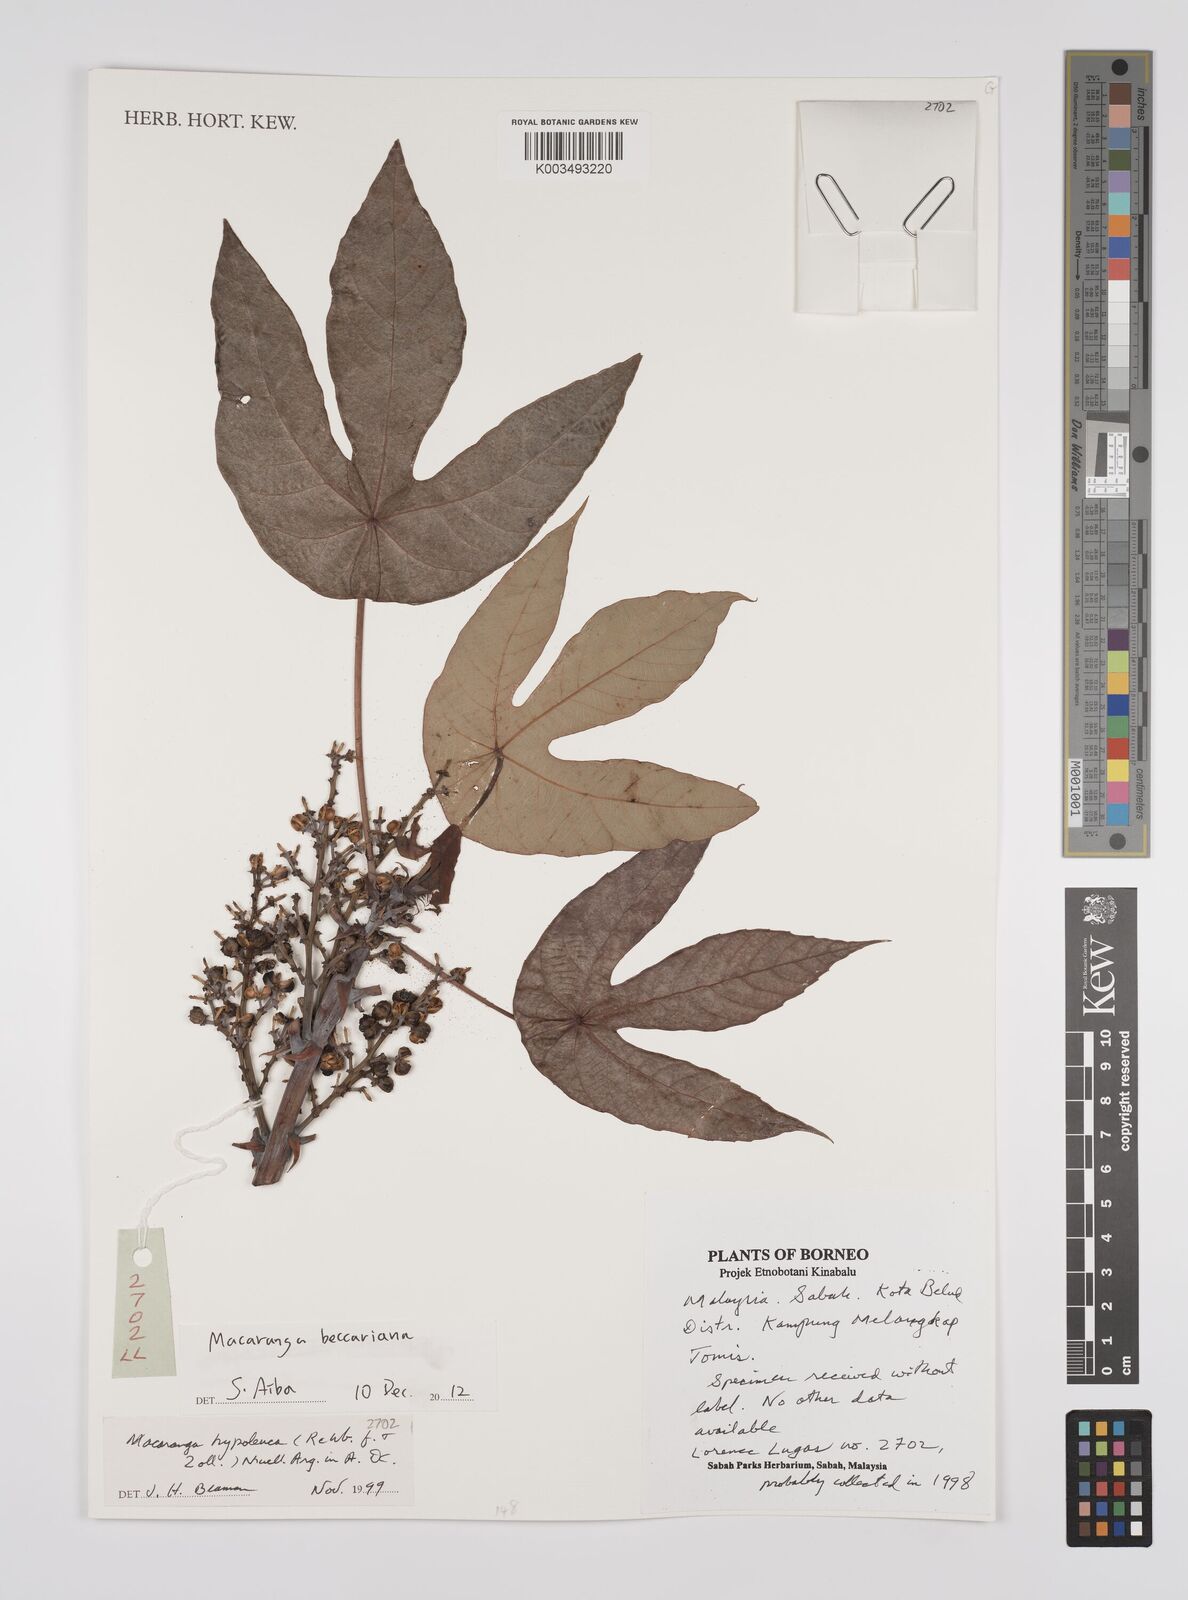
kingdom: Plantae
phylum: Tracheophyta
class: Magnoliopsida
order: Malpighiales
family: Euphorbiaceae
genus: Macaranga
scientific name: Macaranga beccariana
